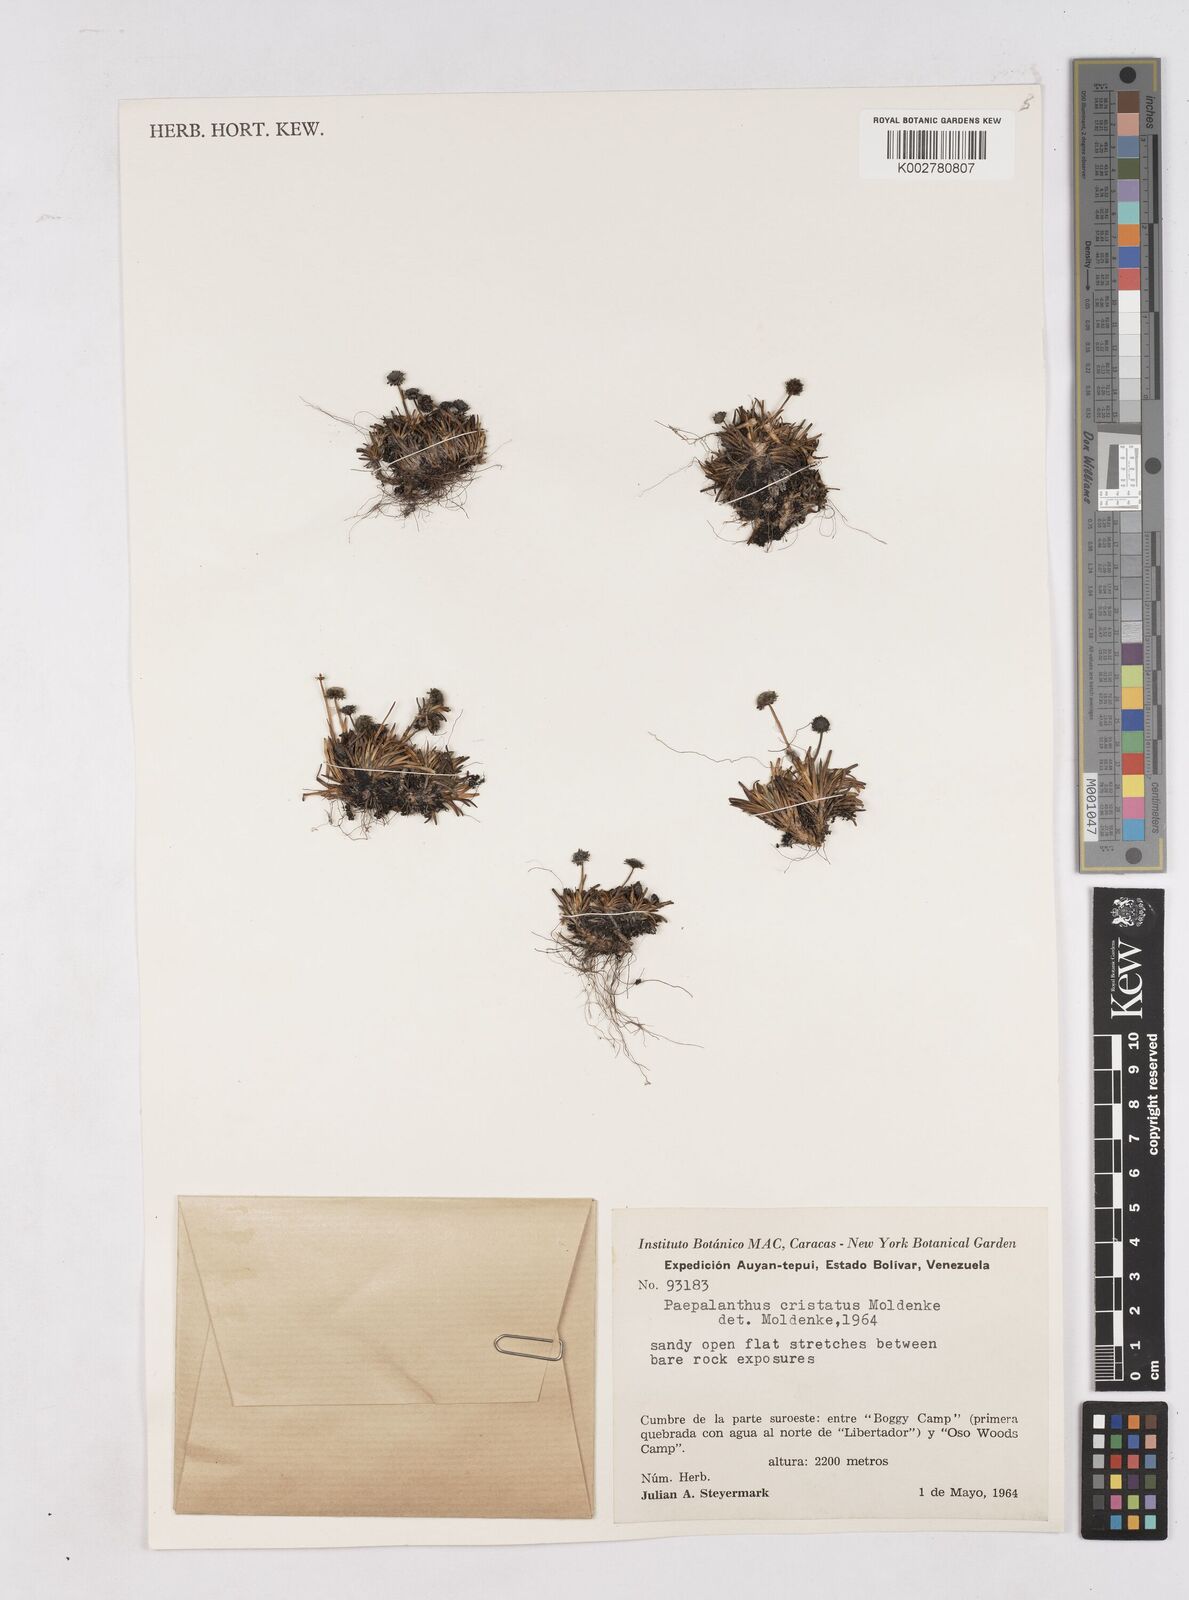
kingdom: Plantae
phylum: Tracheophyta
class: Liliopsida
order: Poales
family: Eriocaulaceae
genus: Paepalanthus
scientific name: Paepalanthus cristatus
